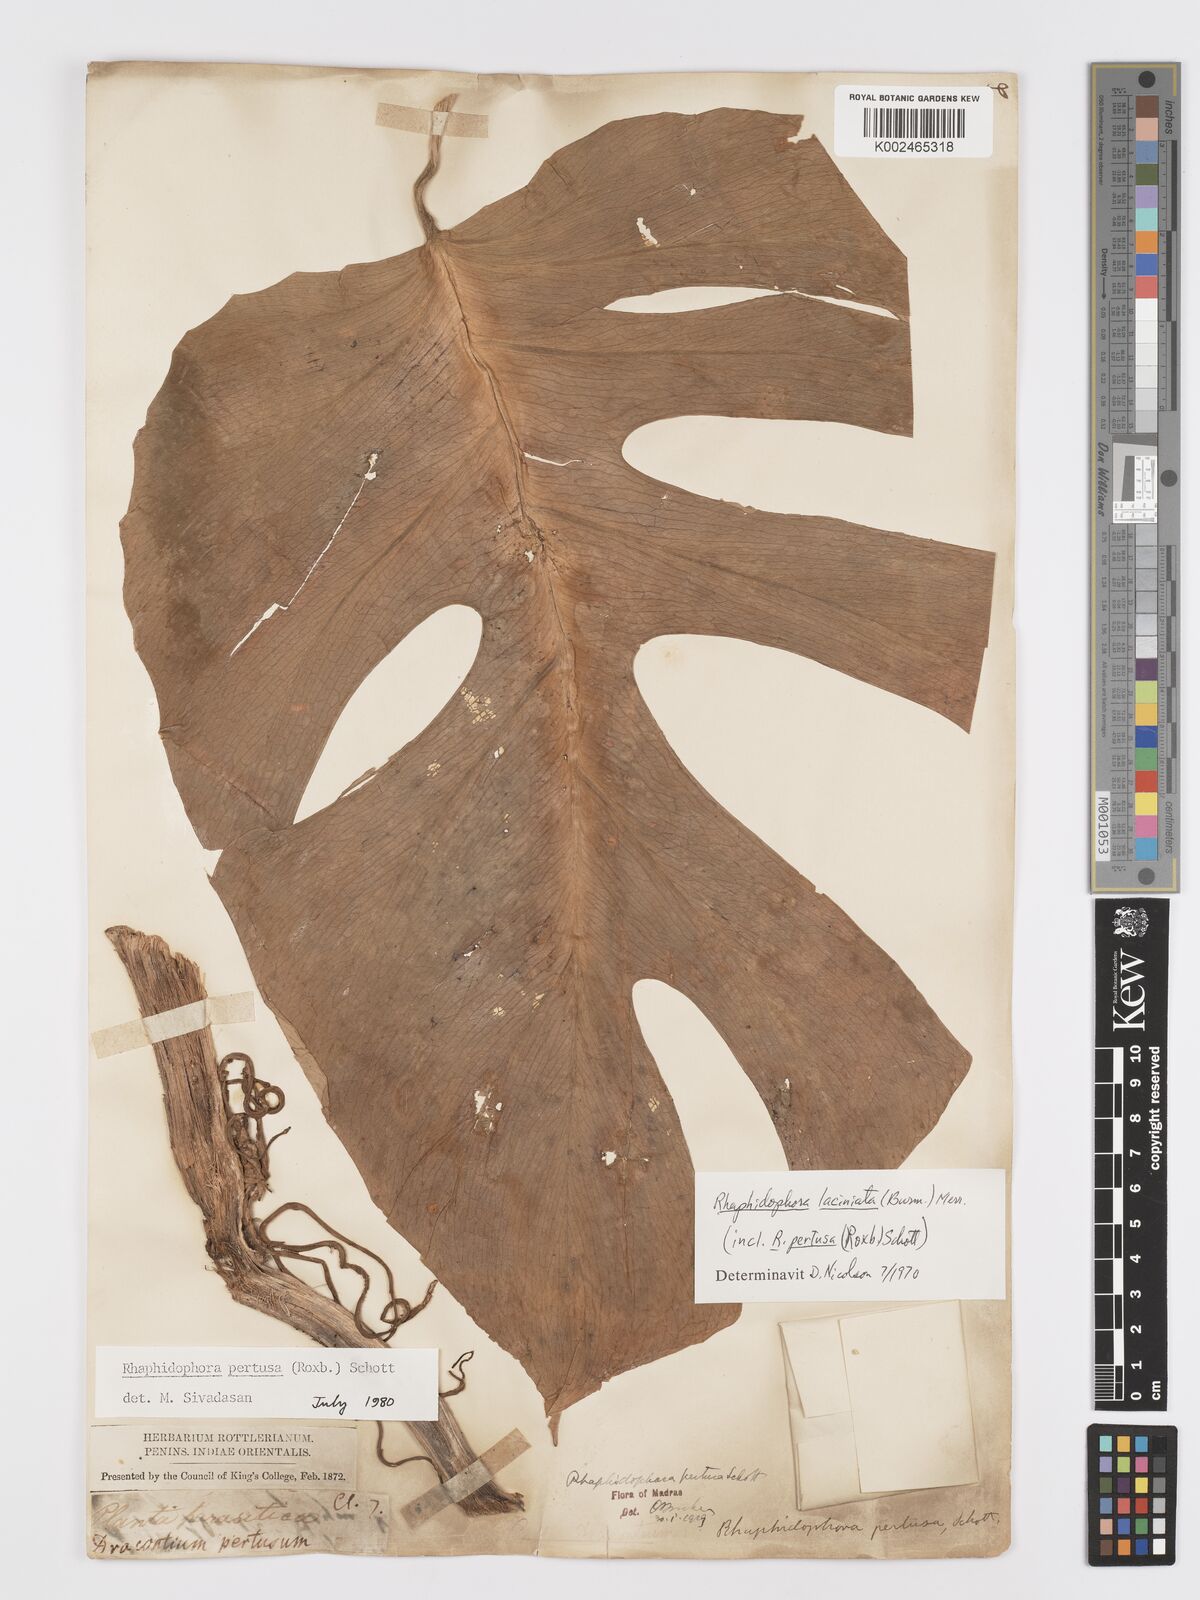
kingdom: Plantae
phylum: Tracheophyta
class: Liliopsida
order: Alismatales
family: Araceae
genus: Rhaphidophora
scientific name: Rhaphidophora pertusa
